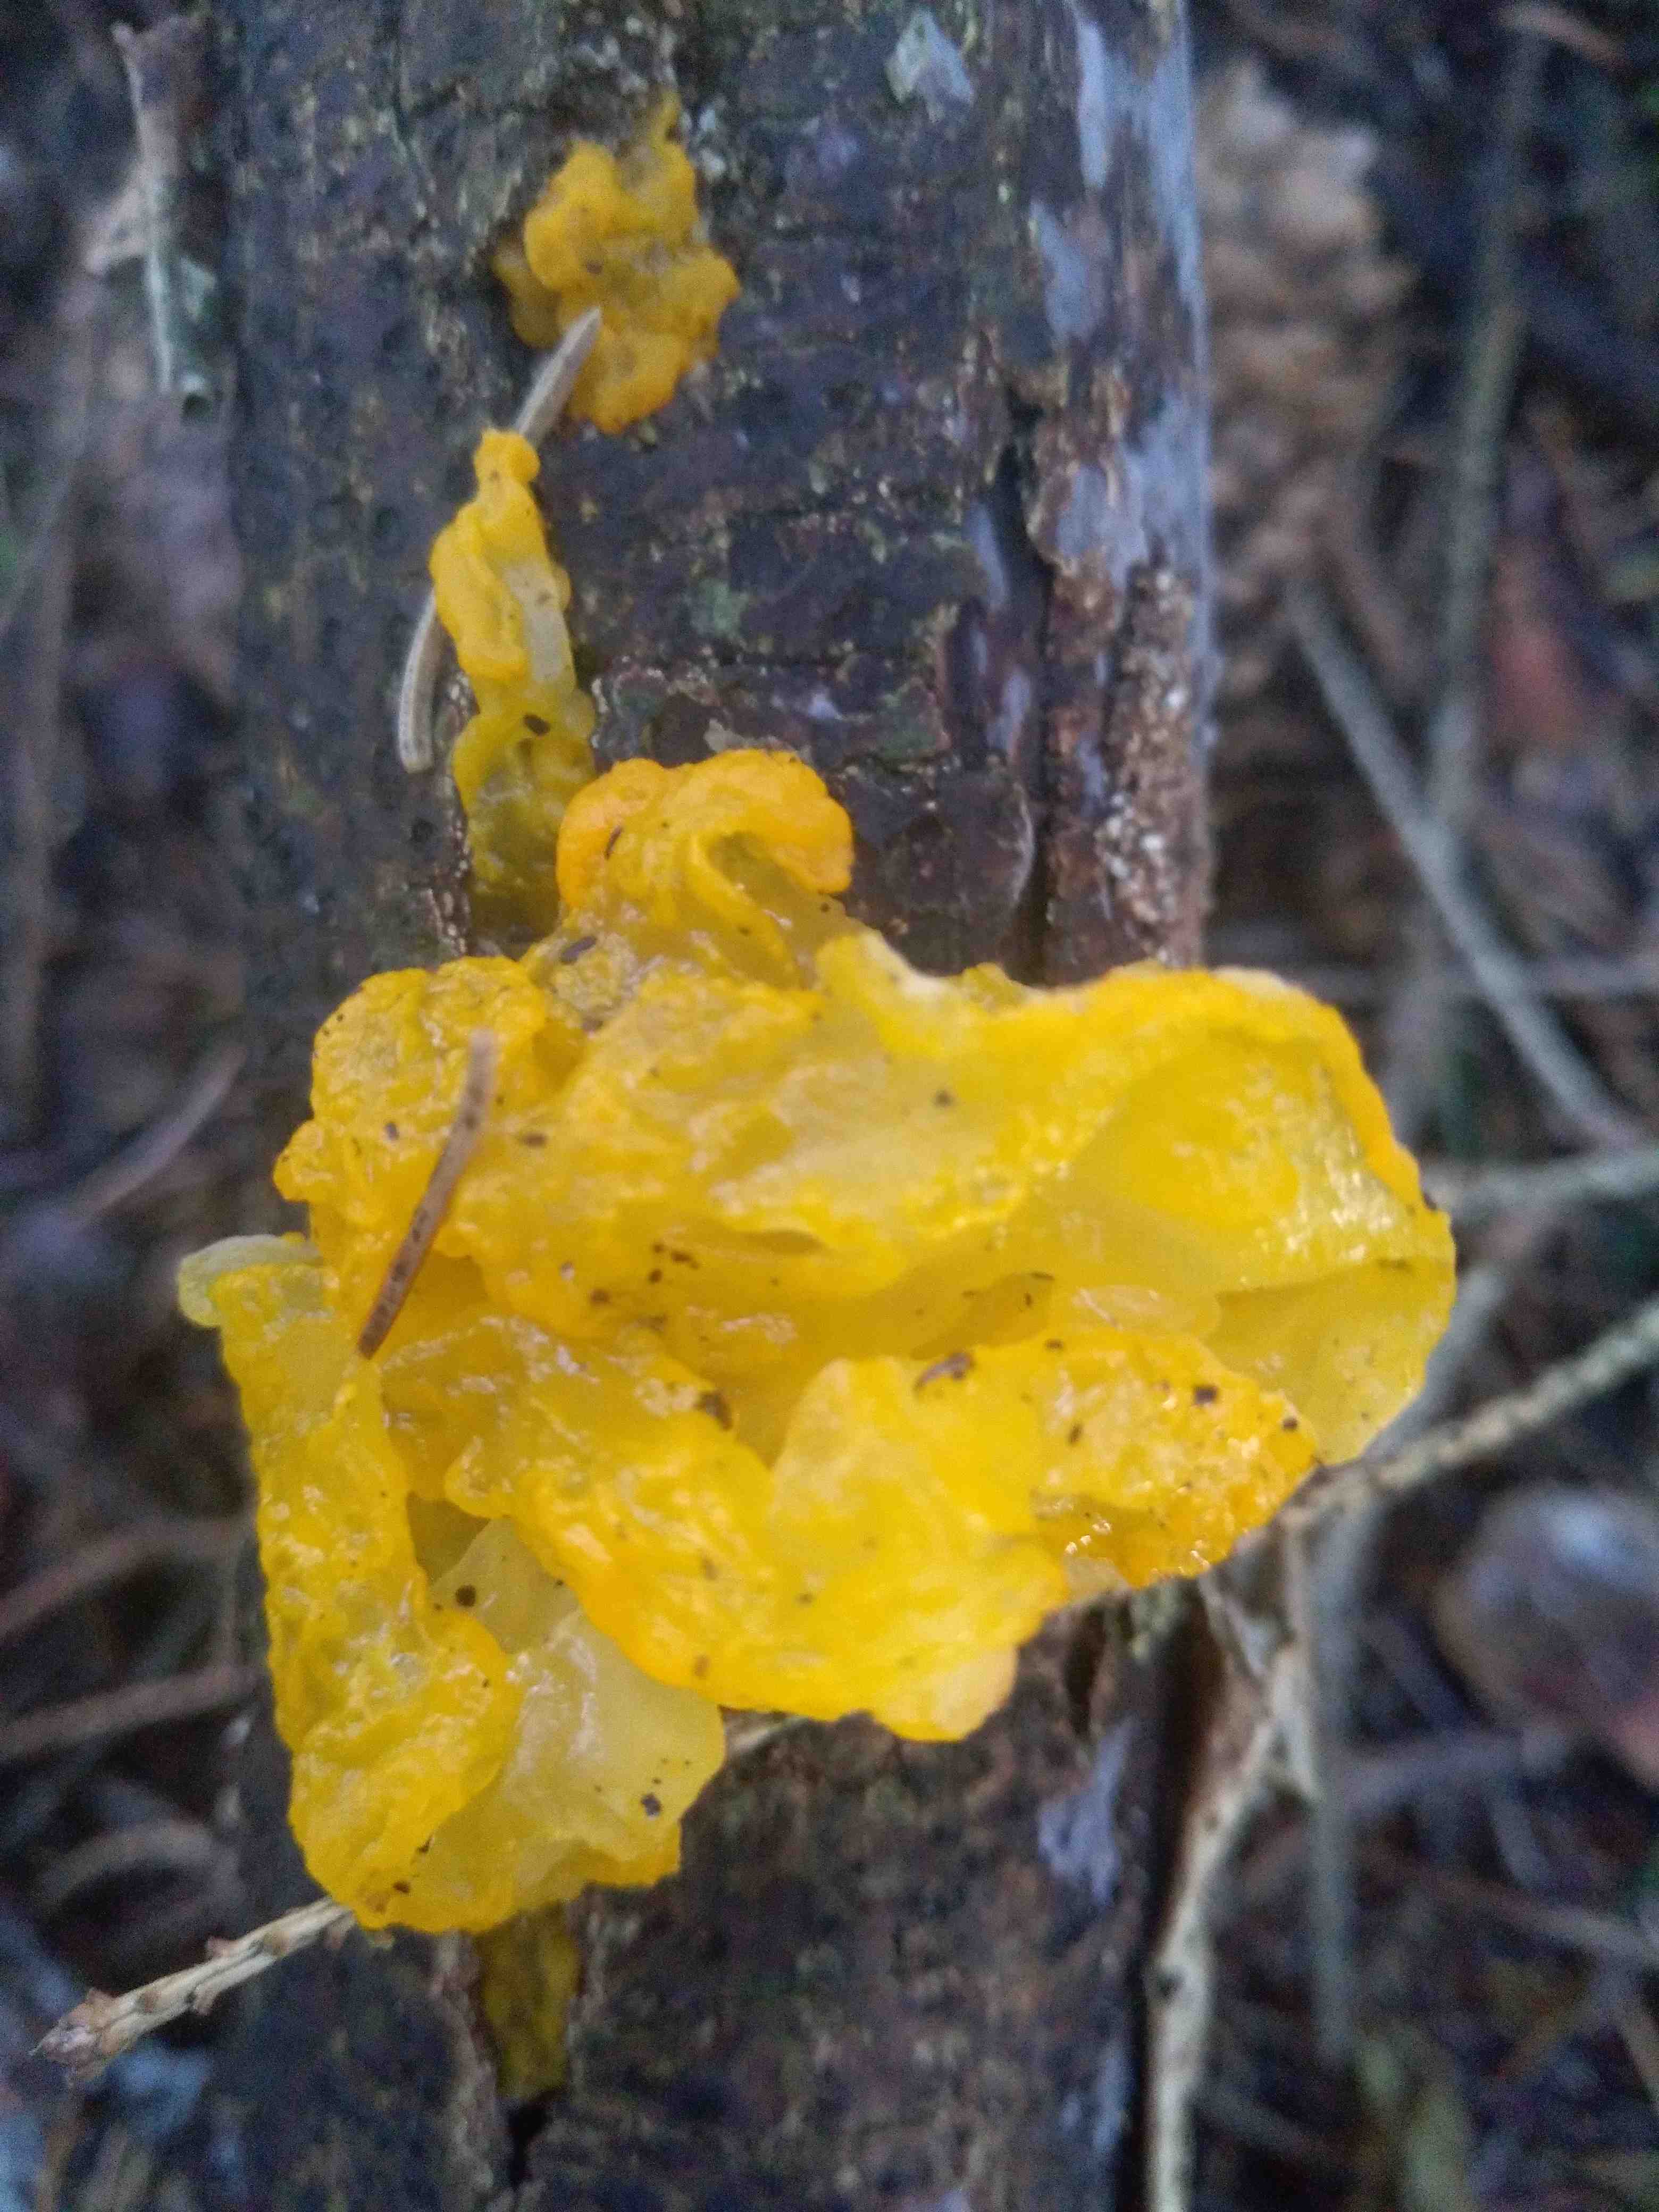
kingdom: Fungi
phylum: Basidiomycota
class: Tremellomycetes
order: Tremellales
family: Tremellaceae
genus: Tremella
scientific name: Tremella mesenterica
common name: gul bævresvamp
